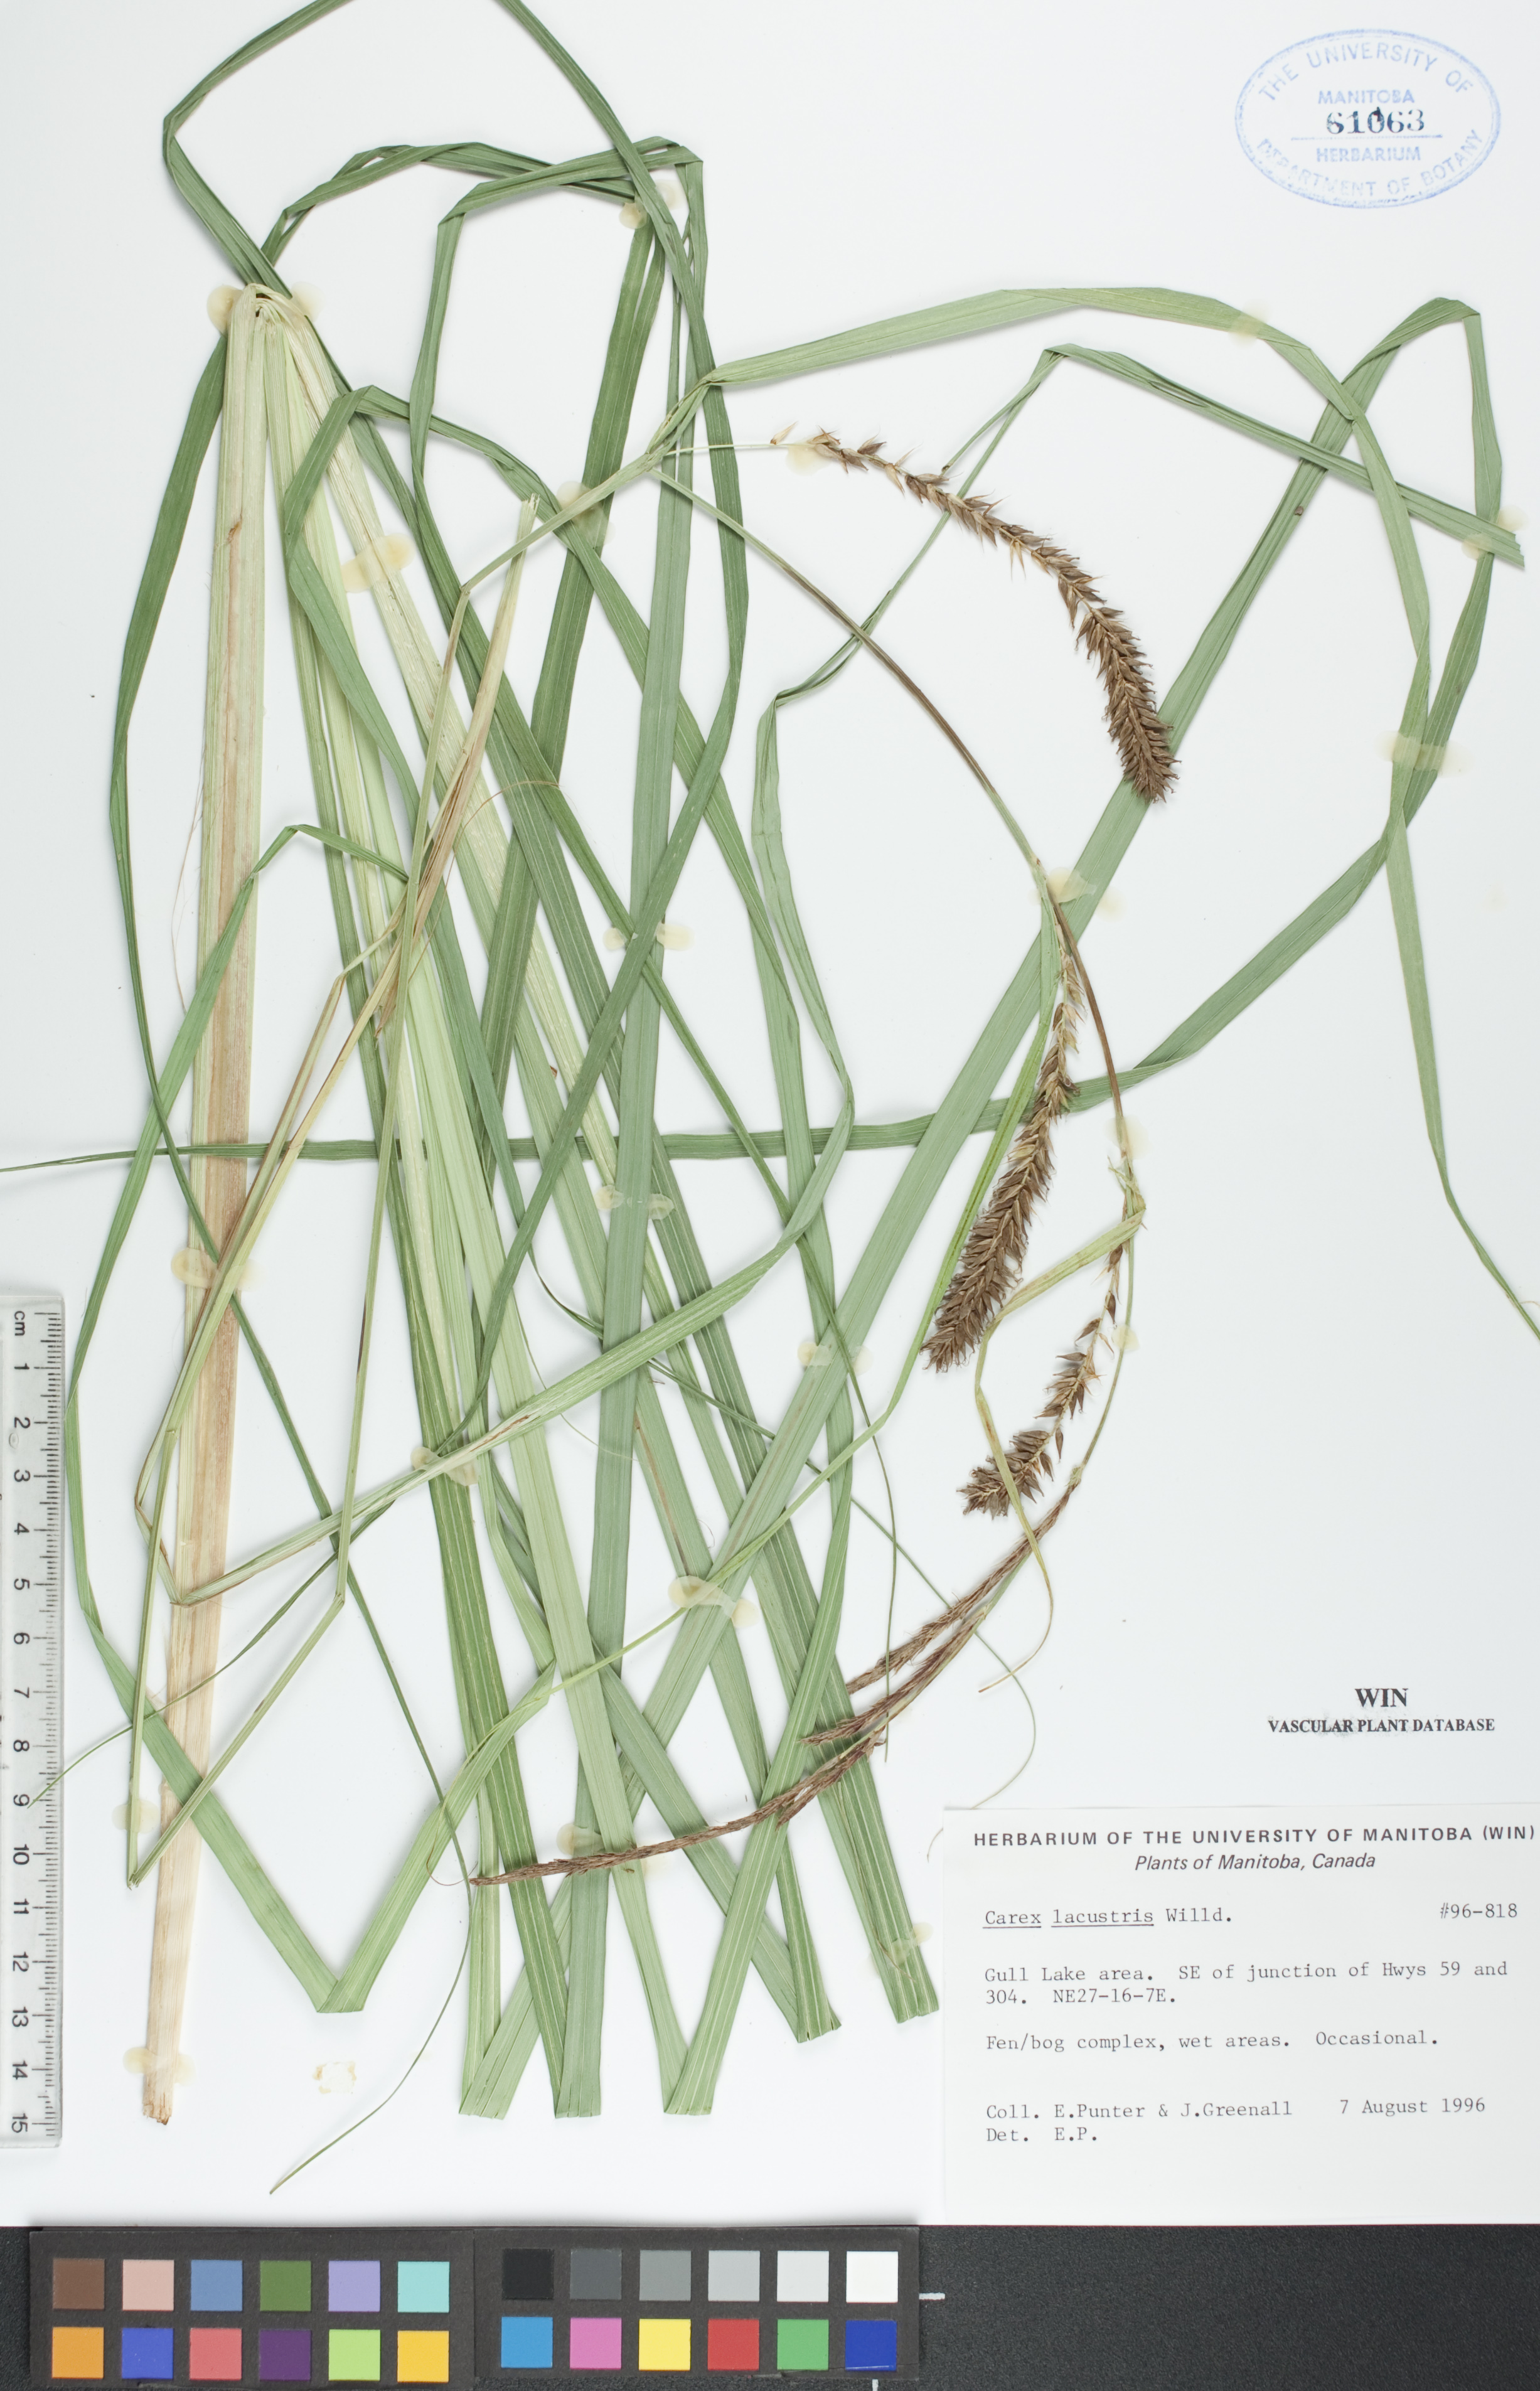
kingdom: Plantae
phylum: Tracheophyta
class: Liliopsida
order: Poales
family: Cyperaceae
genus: Carex
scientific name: Carex lacustris
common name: Common lake sedge
